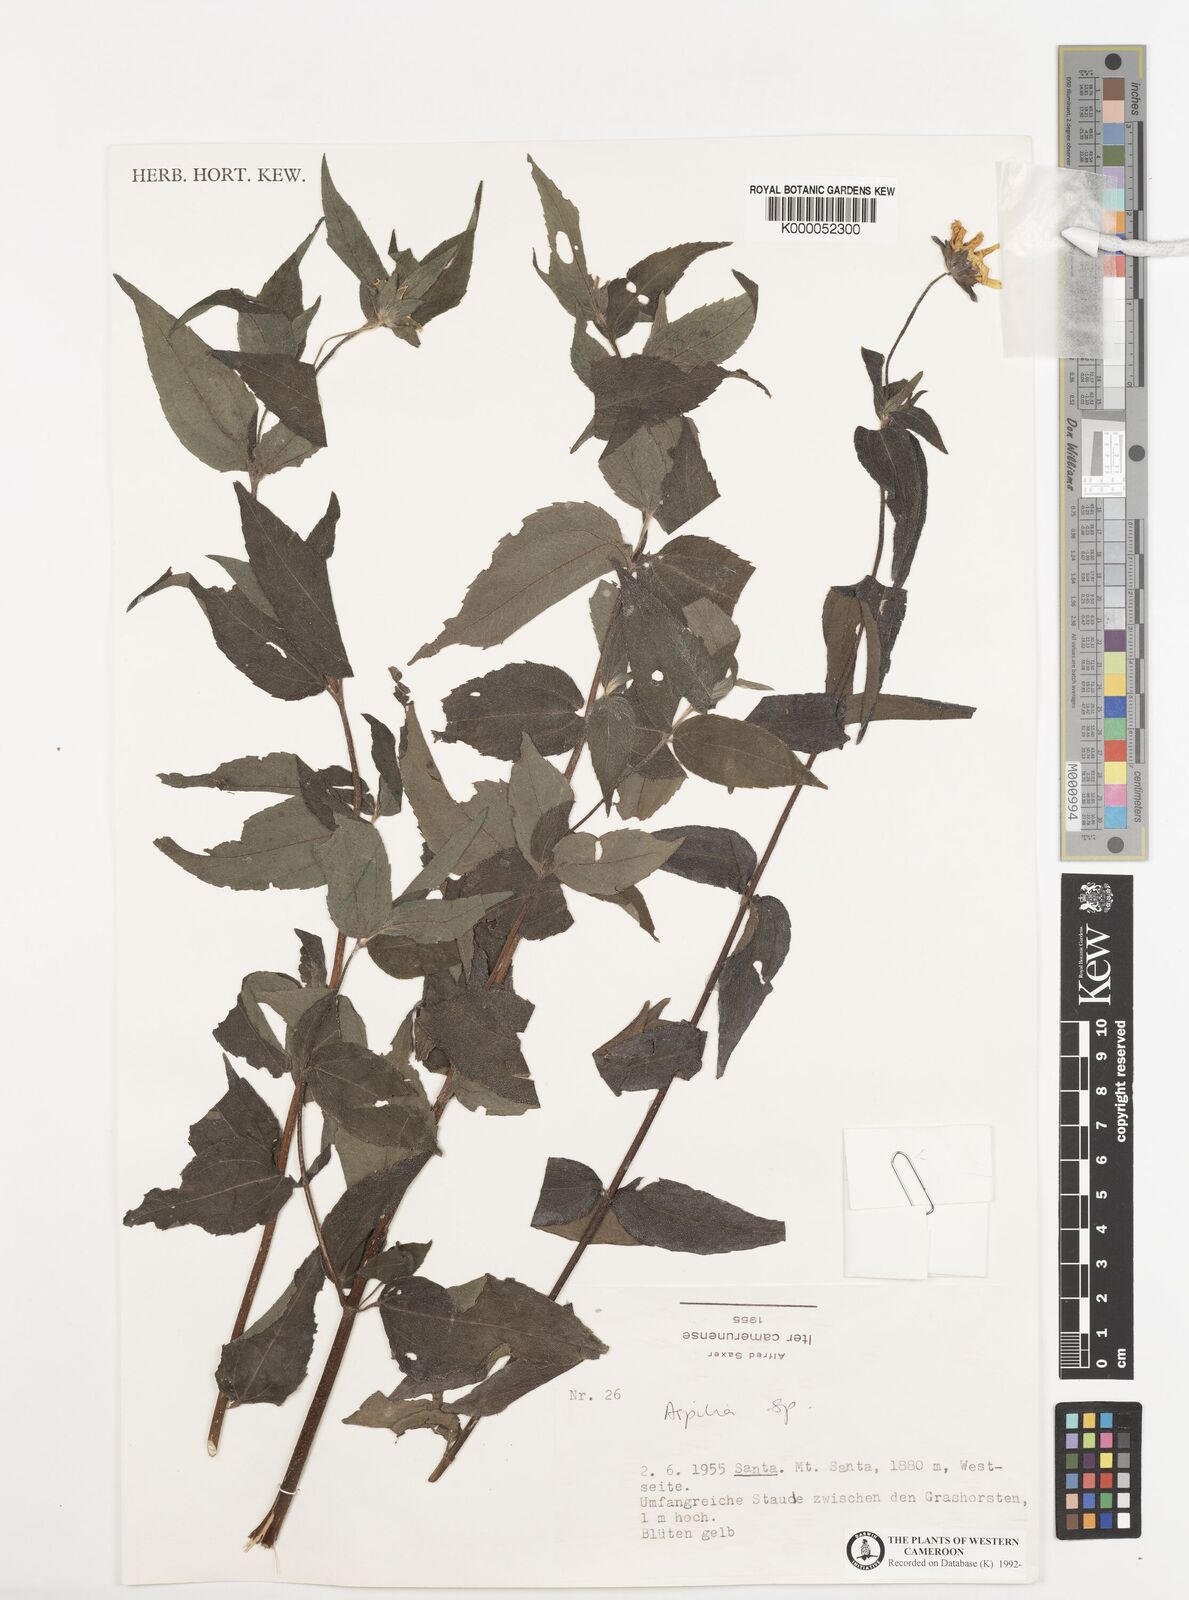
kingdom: Plantae
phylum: Tracheophyta
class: Magnoliopsida
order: Asterales
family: Asteraceae
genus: Aspilia
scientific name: Aspilia
